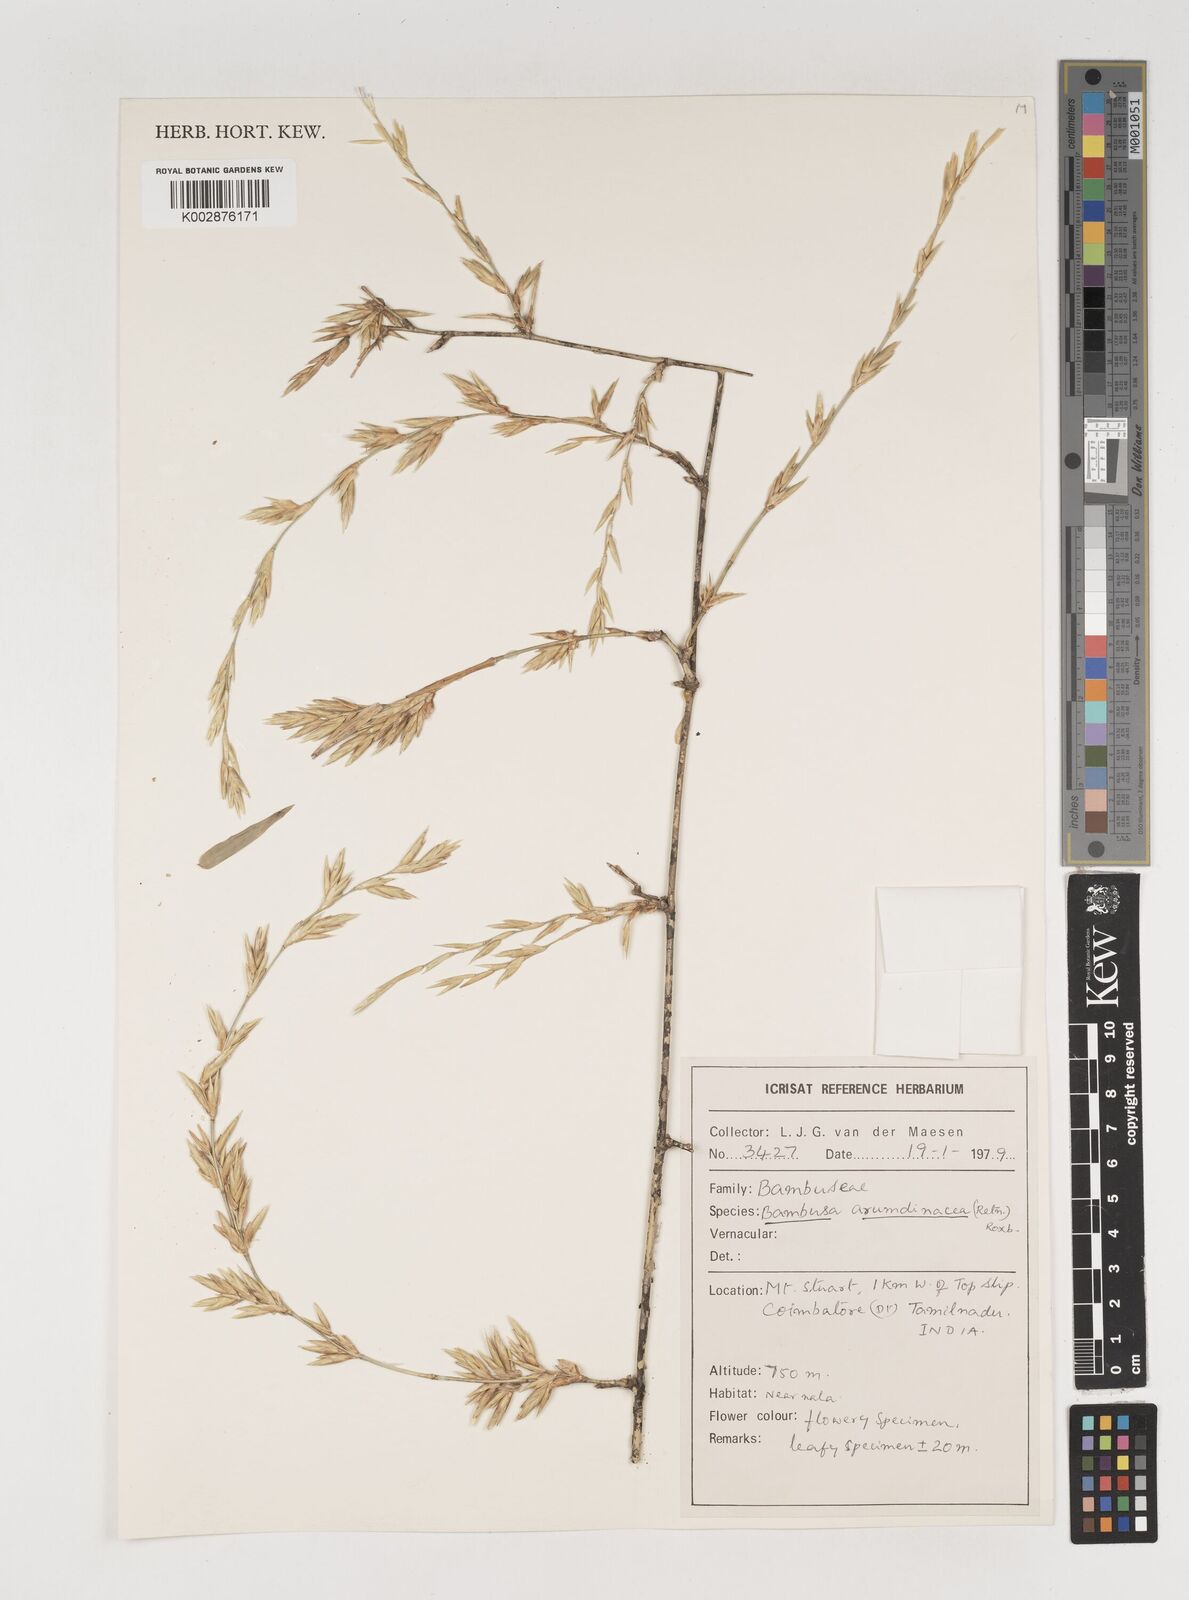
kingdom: Plantae
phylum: Tracheophyta
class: Liliopsida
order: Poales
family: Poaceae
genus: Bambusa
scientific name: Bambusa bambos
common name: Indian thorny bamboo
